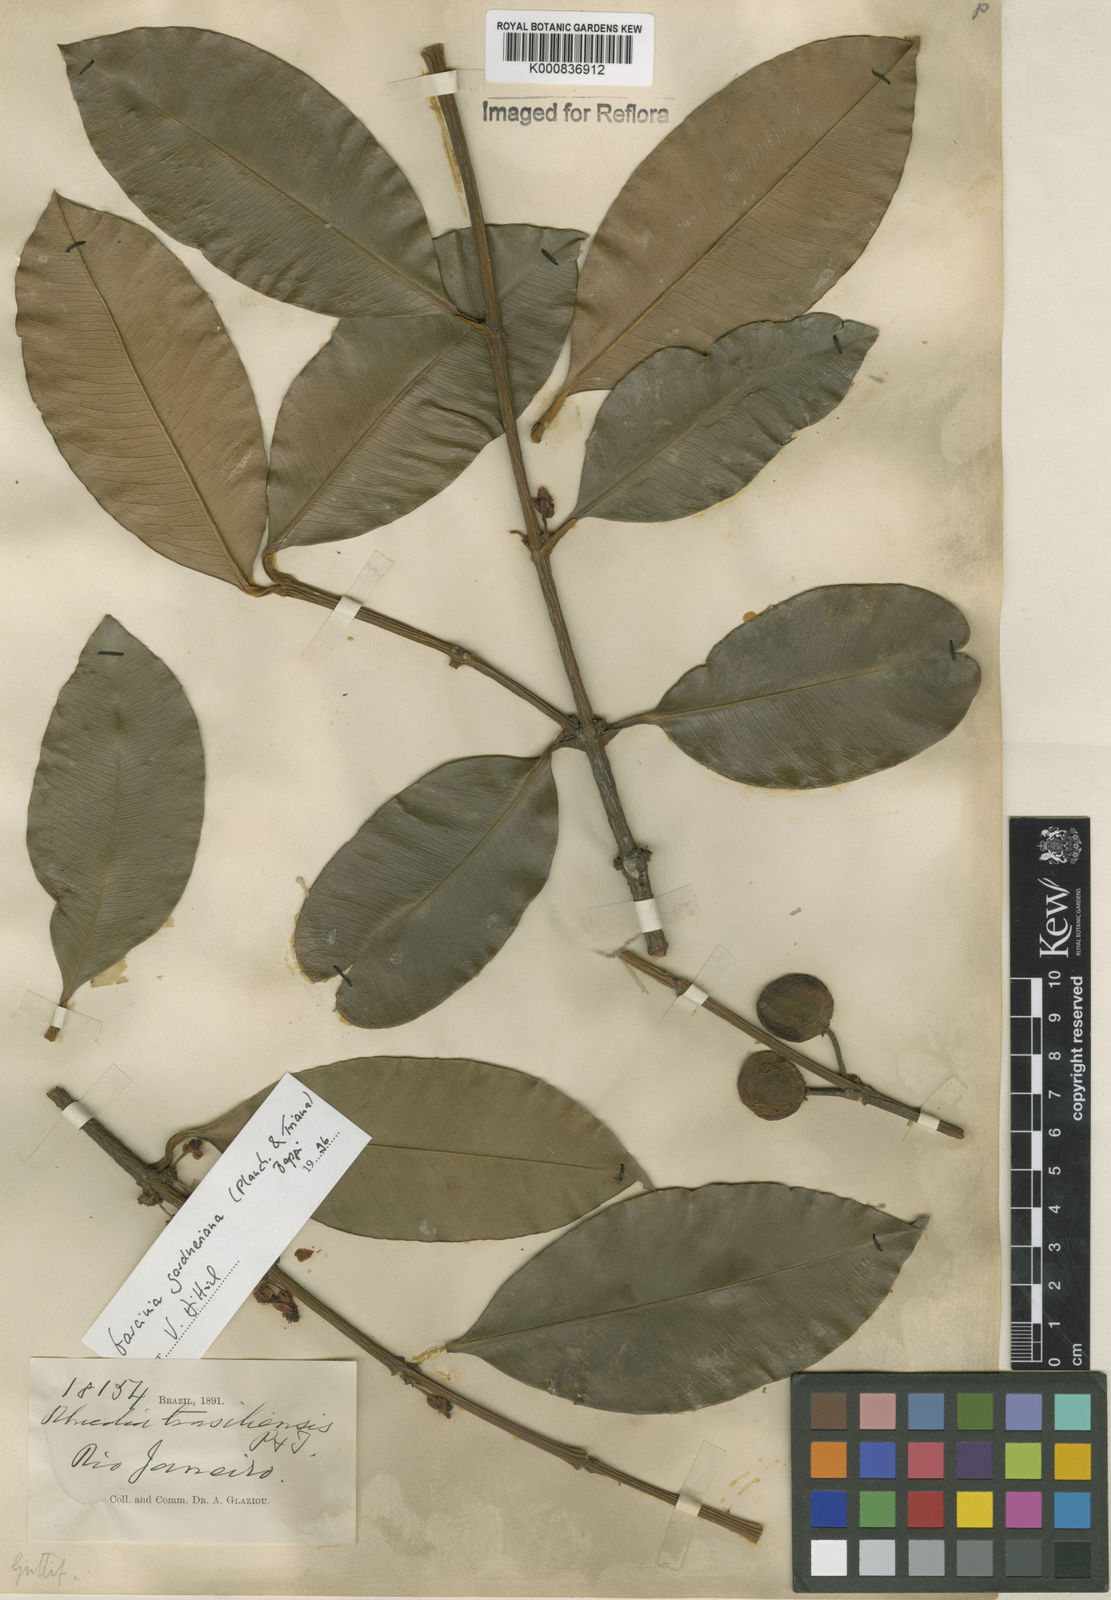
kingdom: Plantae
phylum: Tracheophyta
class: Magnoliopsida
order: Malpighiales
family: Clusiaceae
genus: Garcinia
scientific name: Garcinia gardneriana
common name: Achacha
